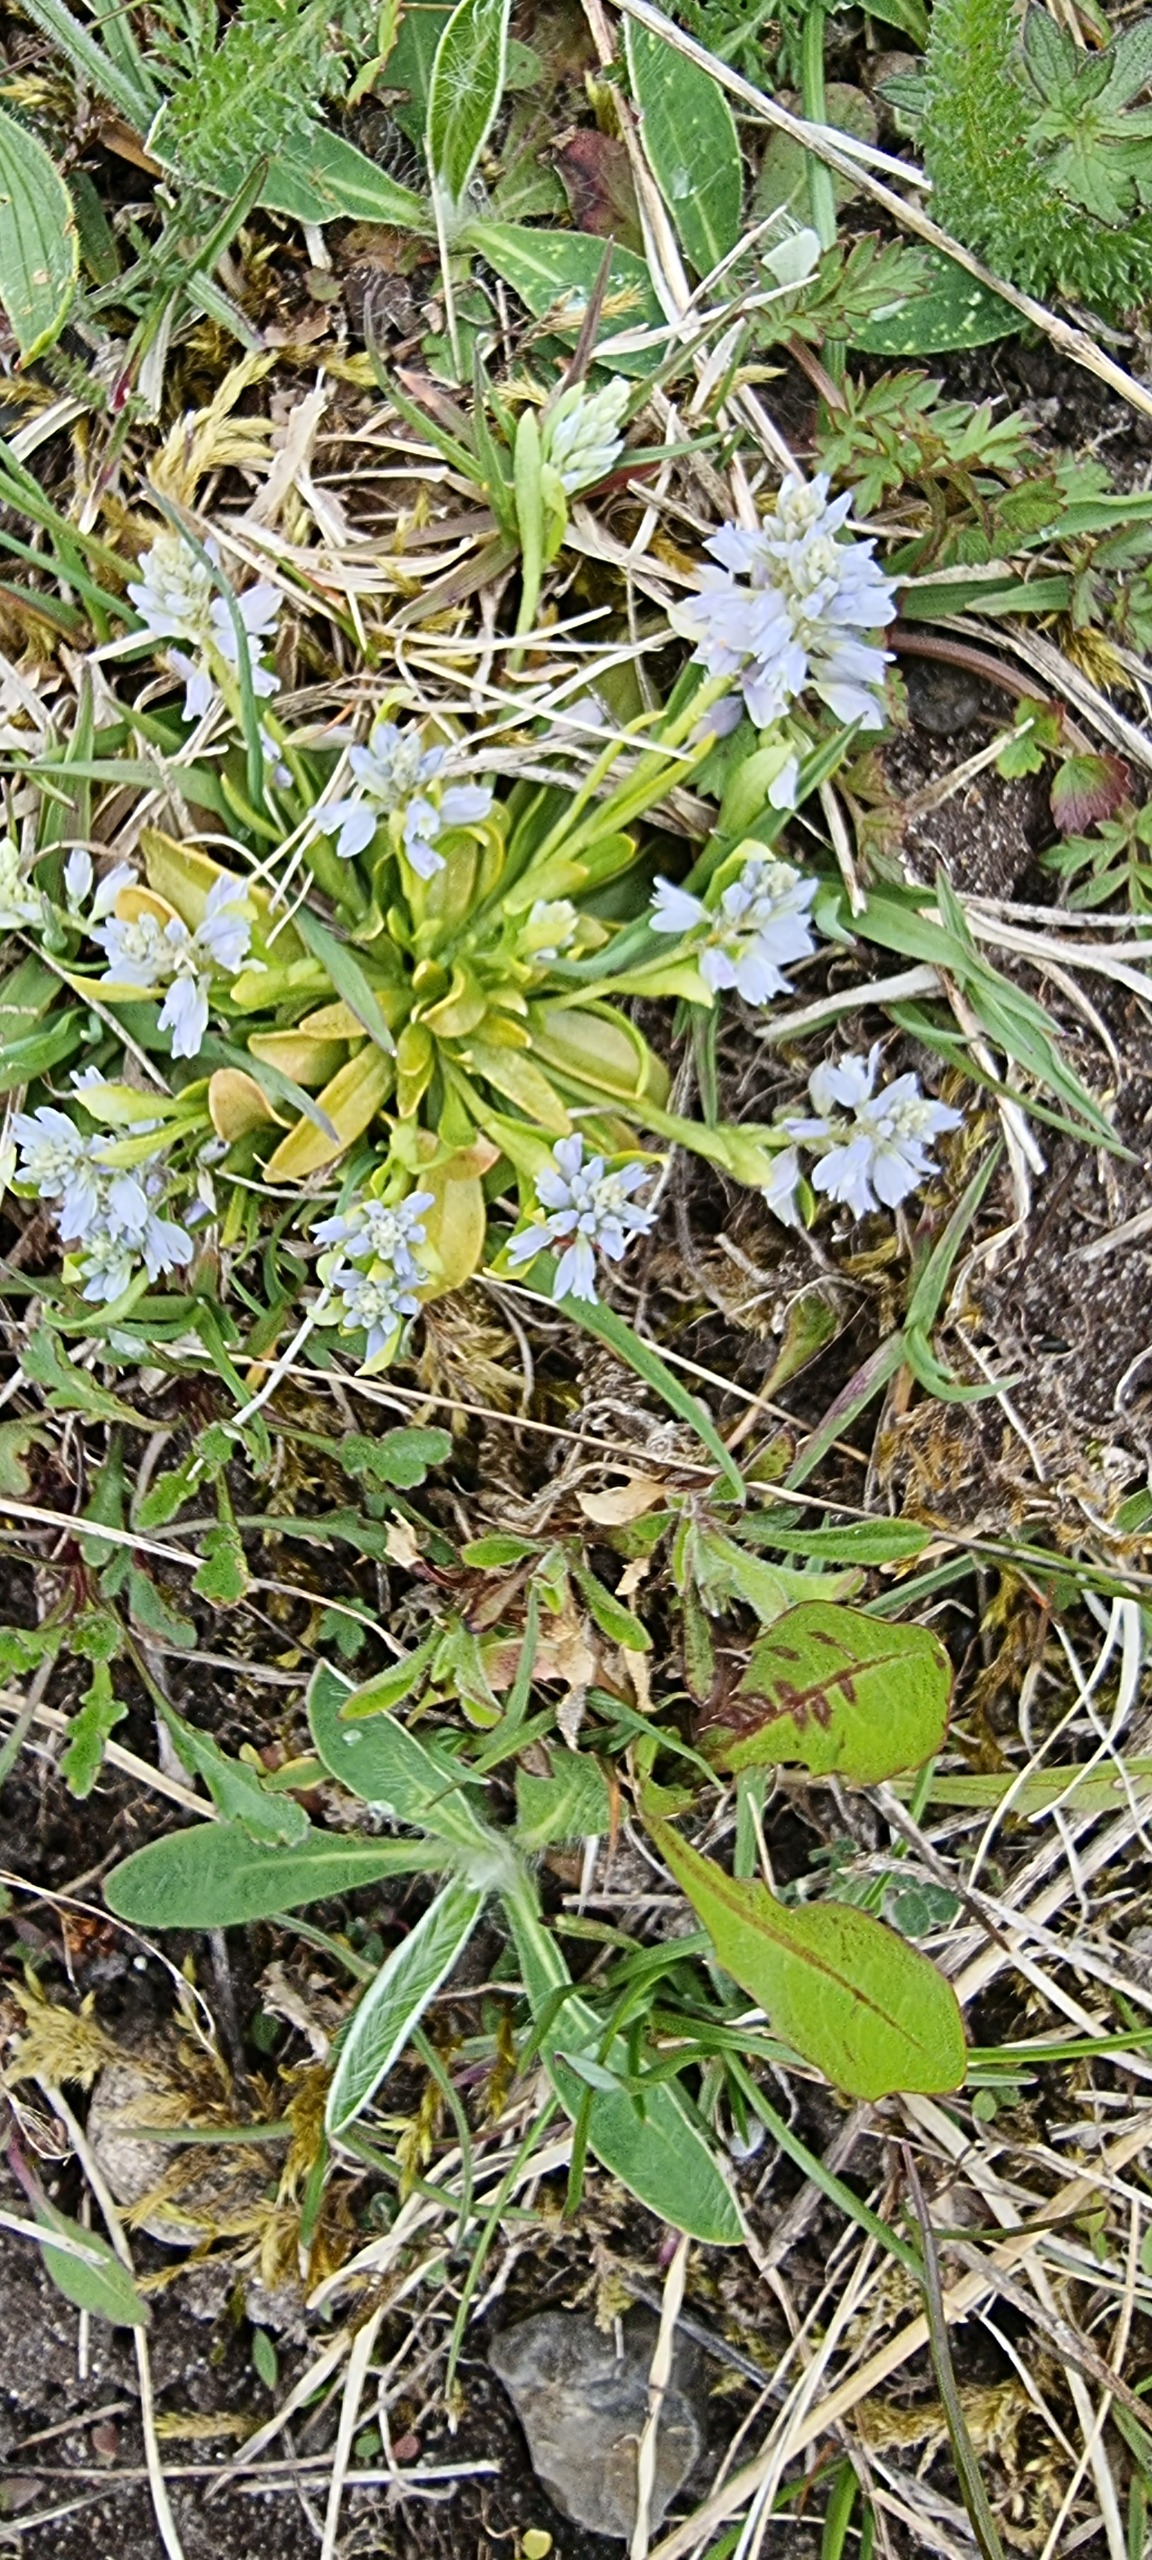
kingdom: Plantae
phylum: Tracheophyta
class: Magnoliopsida
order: Fabales
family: Polygalaceae
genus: Polygala
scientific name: Polygala amarella
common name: Bitter mælkeurt
